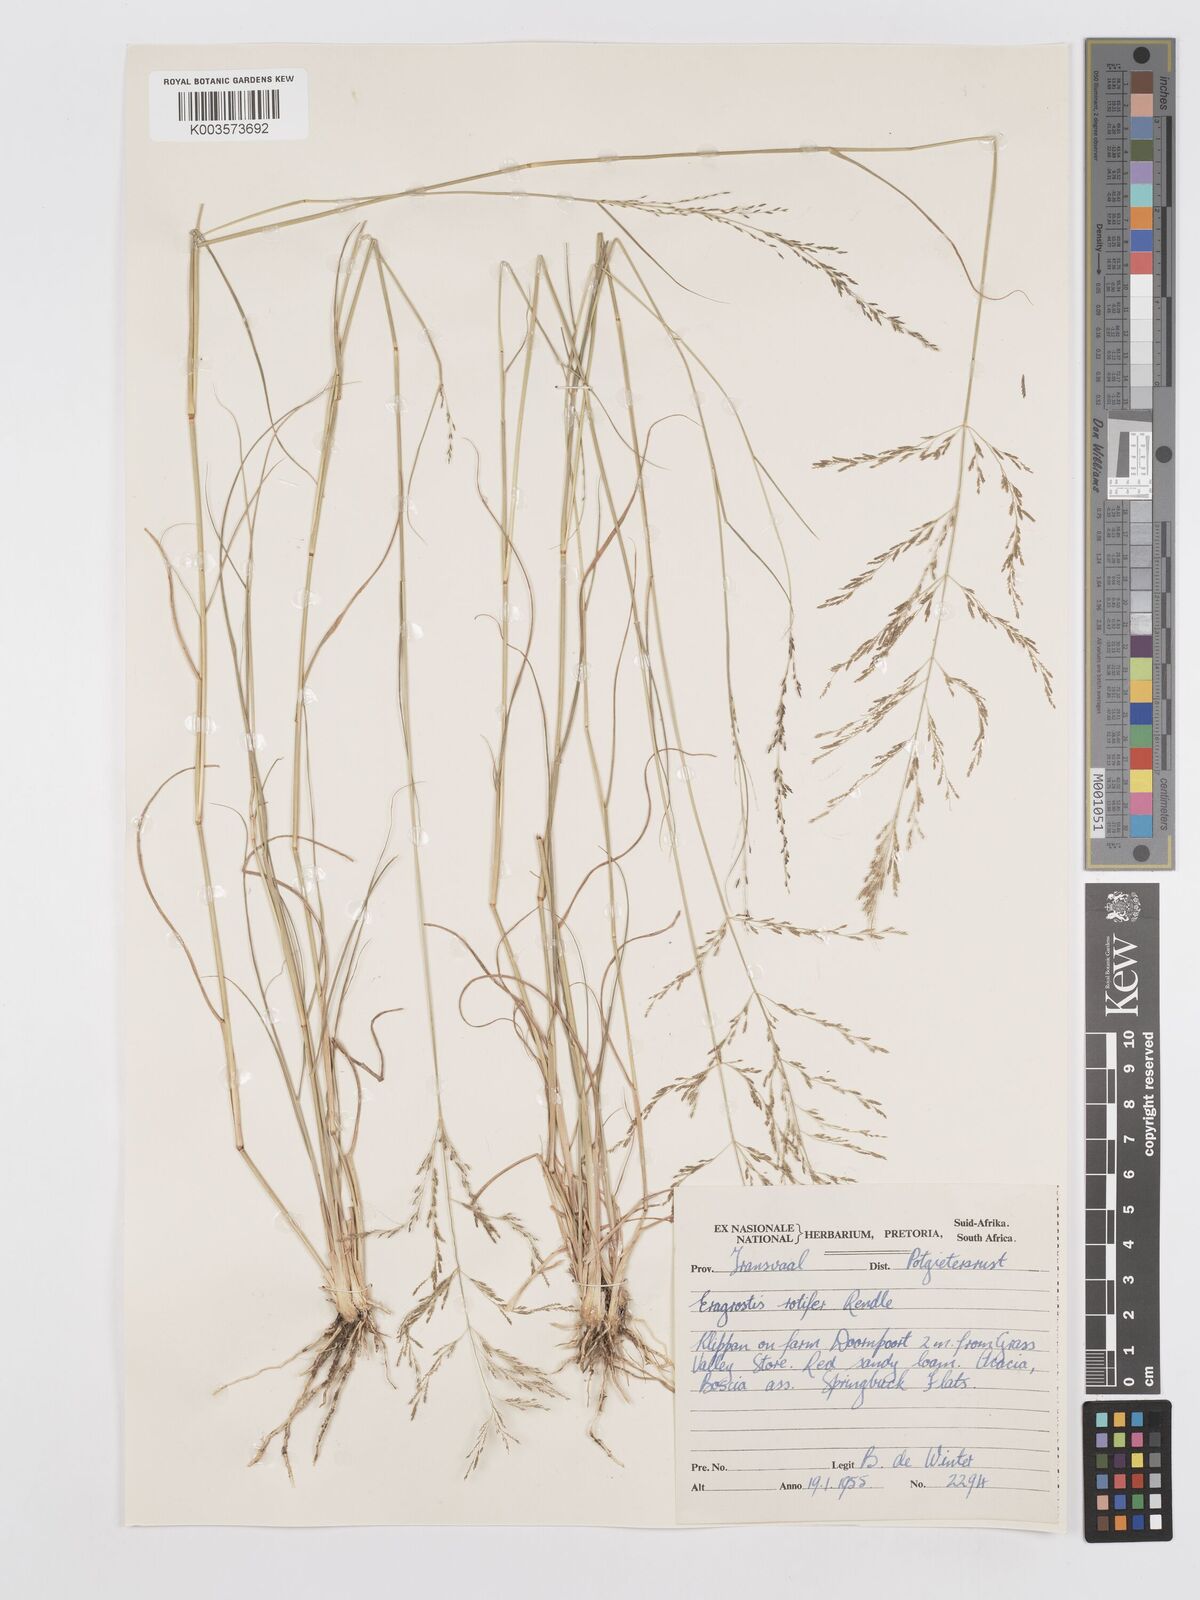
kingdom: Plantae
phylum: Tracheophyta
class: Liliopsida
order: Poales
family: Poaceae
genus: Eragrostis
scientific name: Eragrostis rotifer
